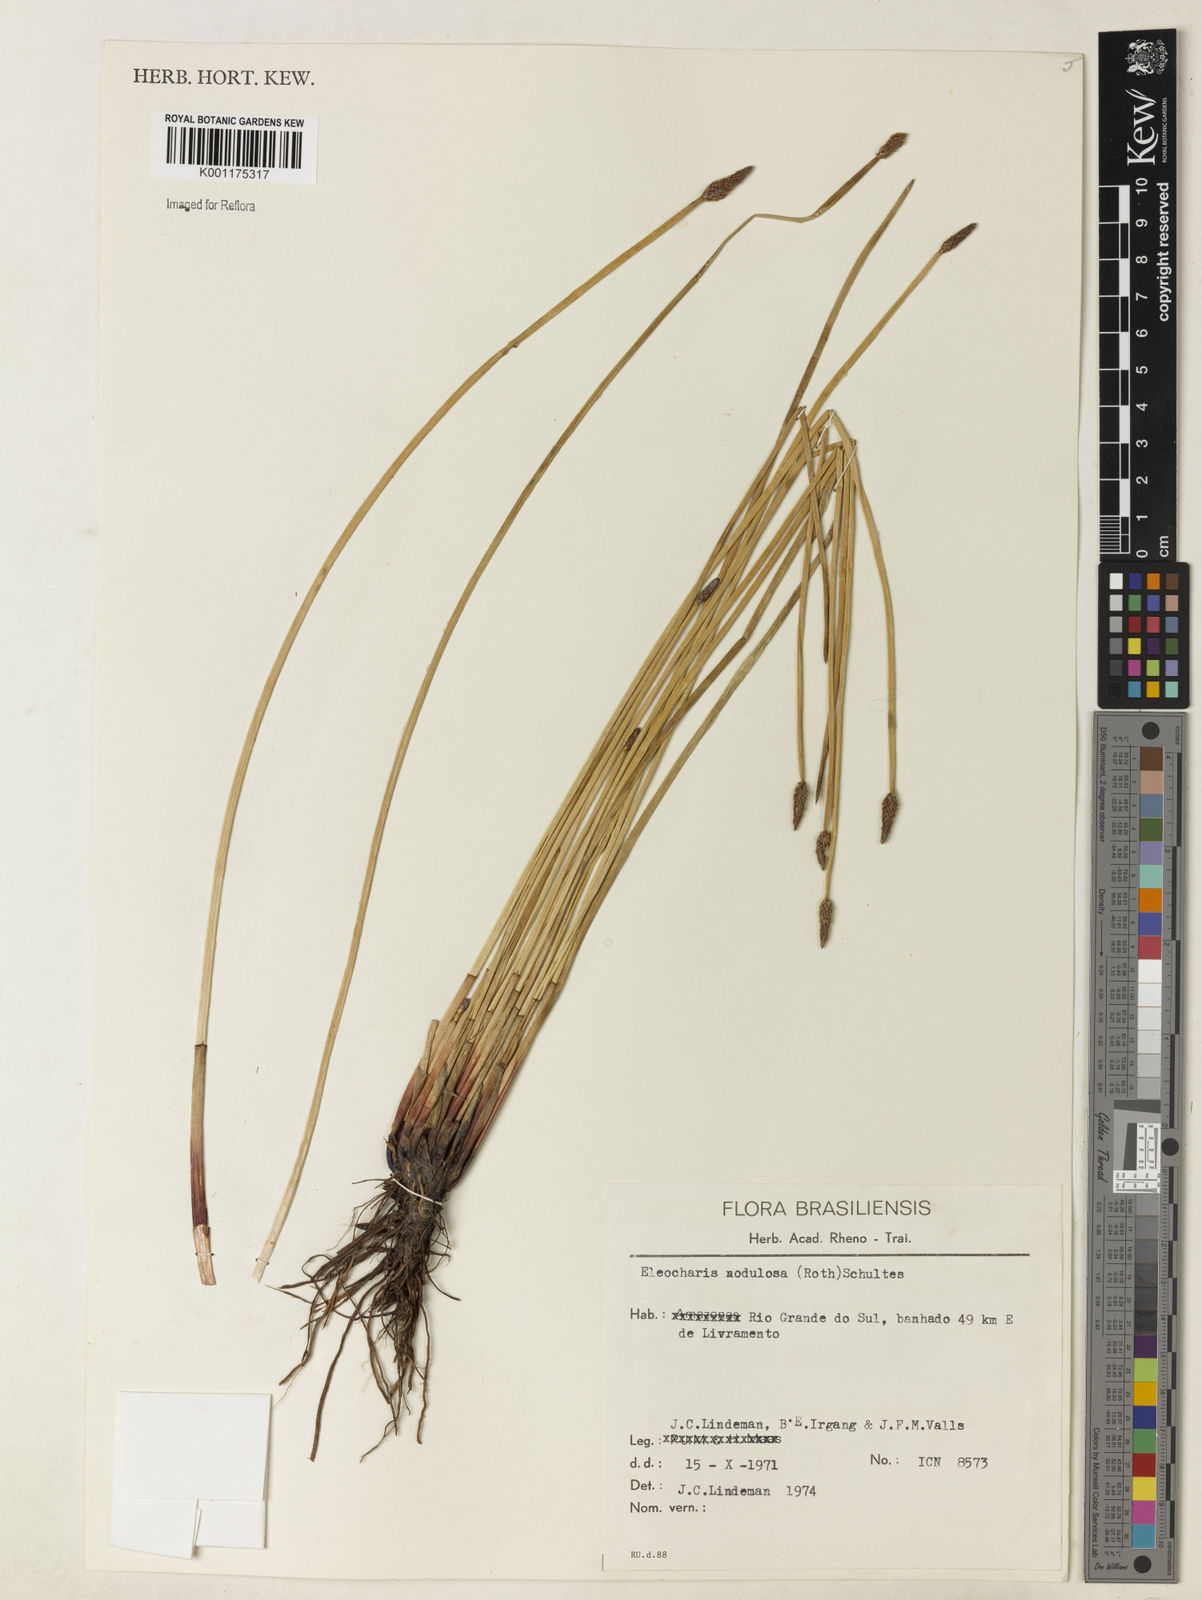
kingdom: Plantae
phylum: Tracheophyta
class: Liliopsida
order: Poales
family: Cyperaceae
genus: Eleocharis
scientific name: Eleocharis montana
